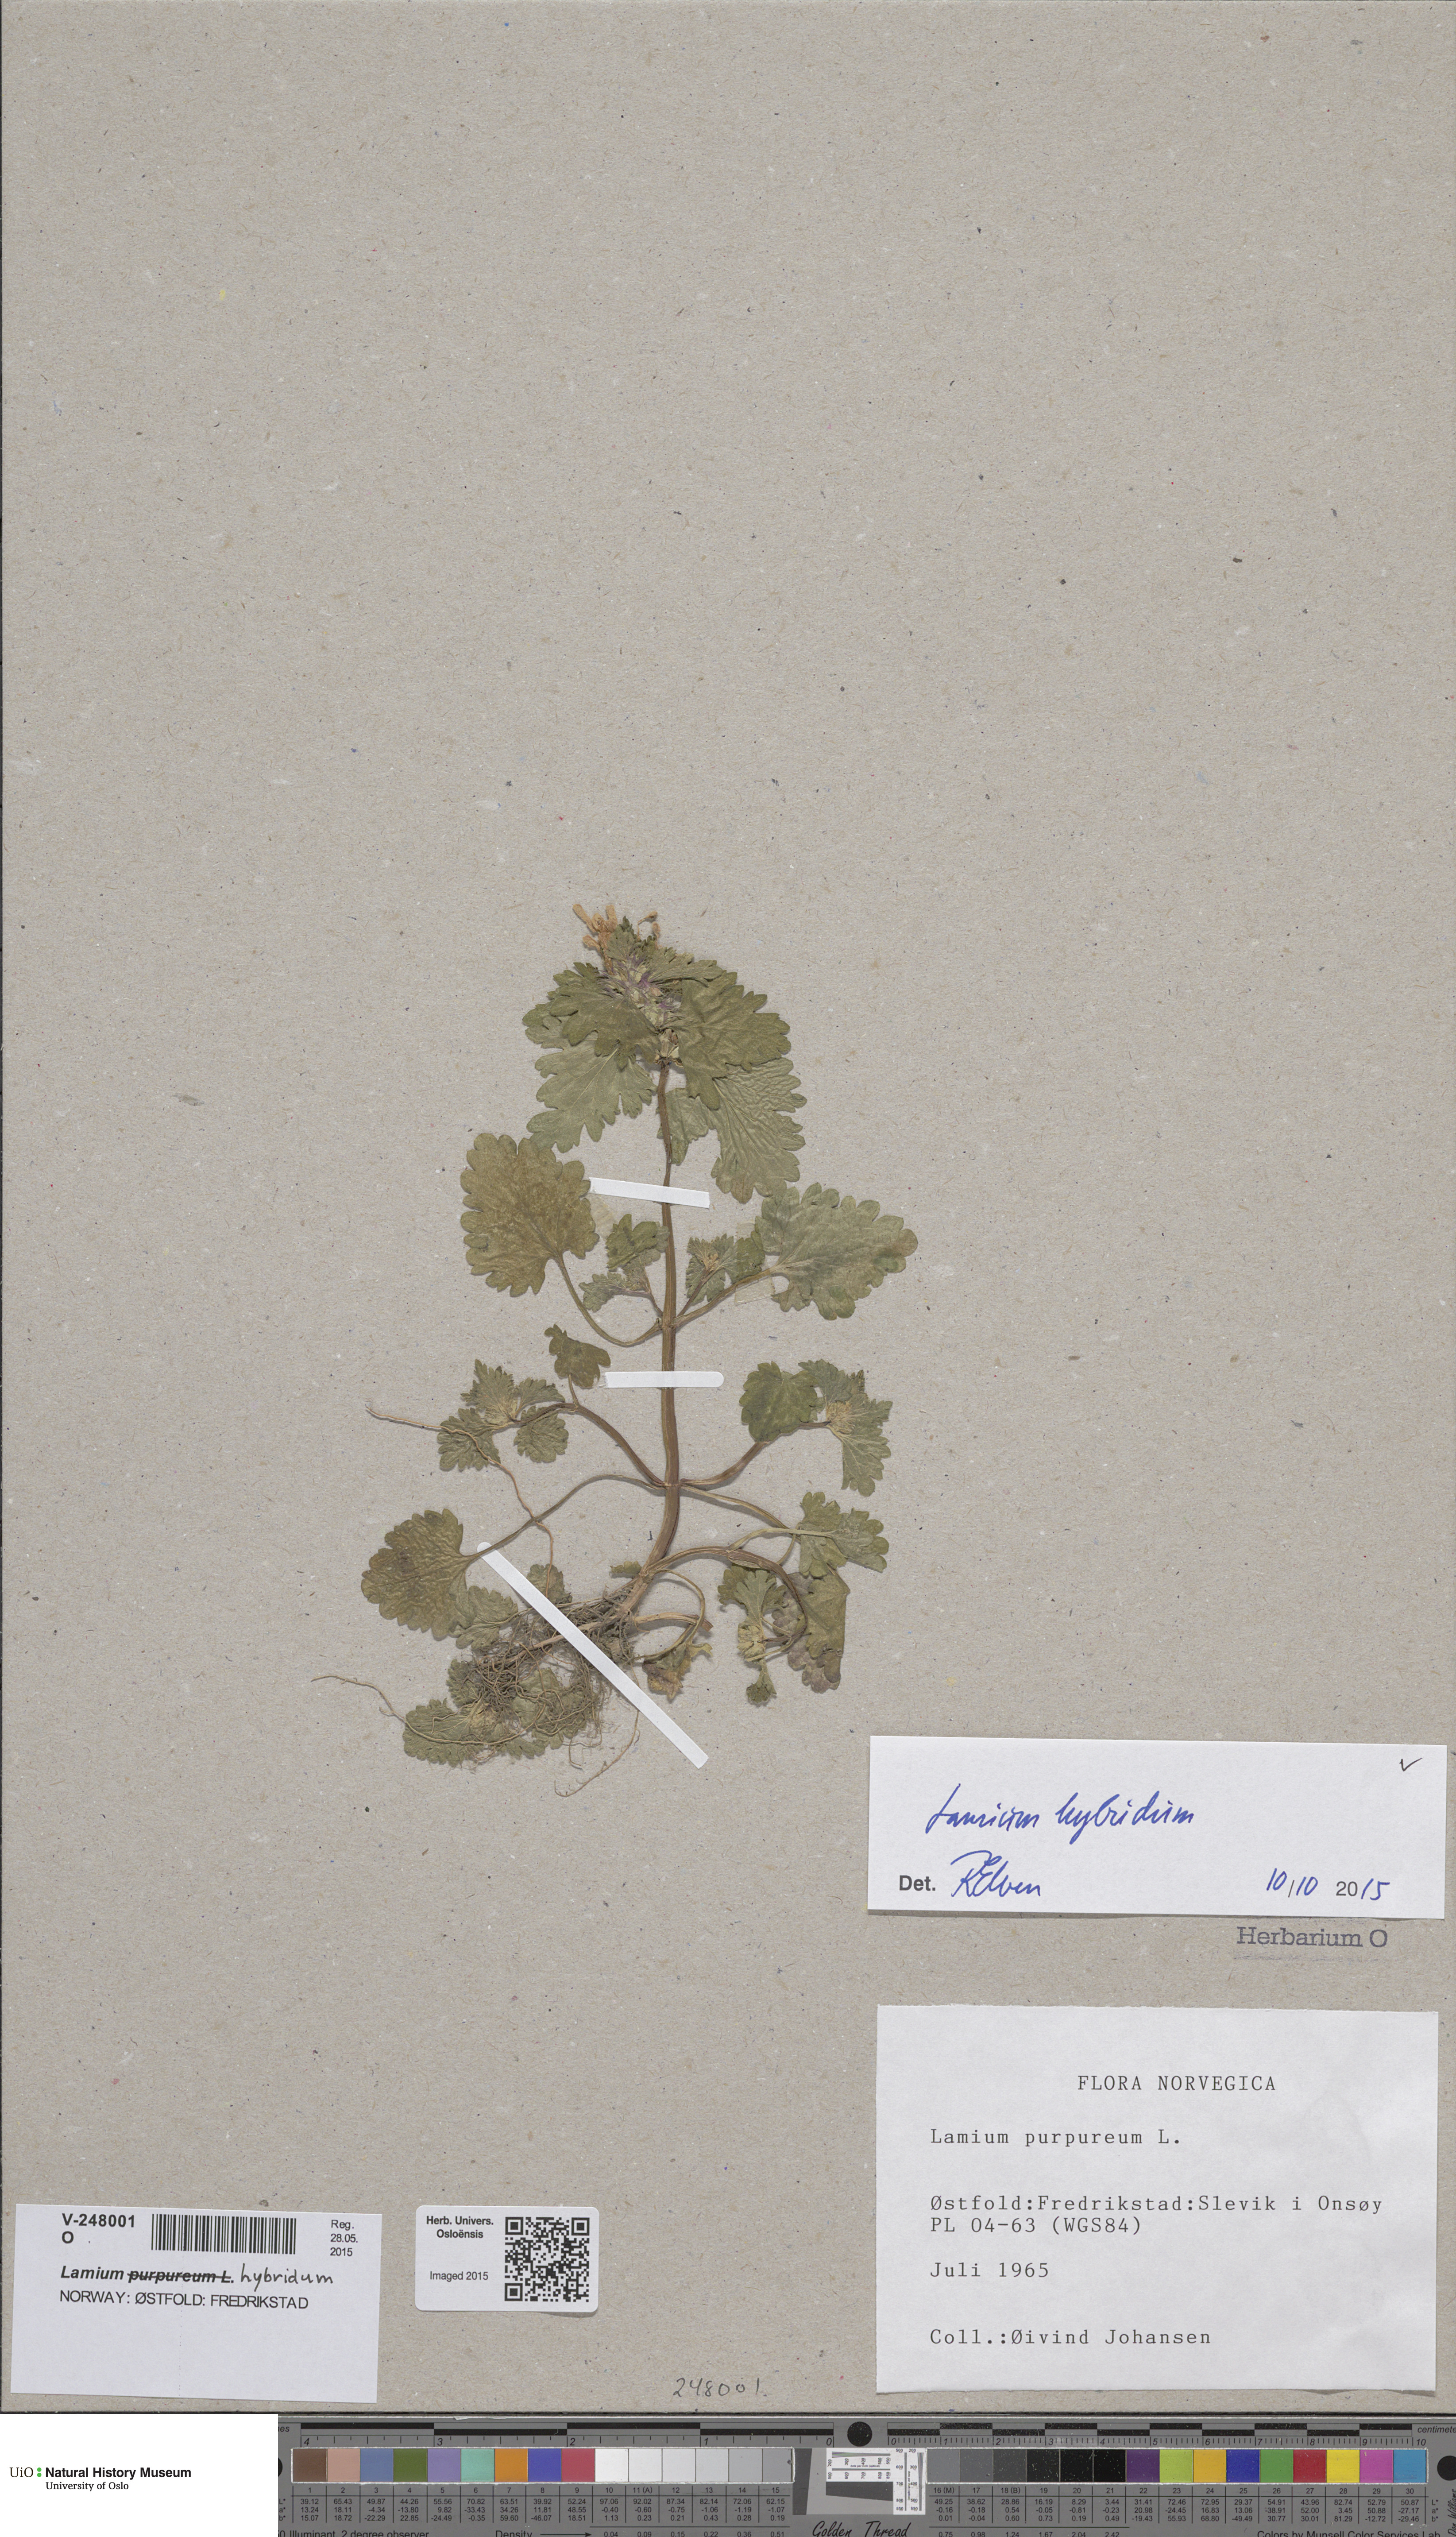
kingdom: Plantae
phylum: Tracheophyta
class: Magnoliopsida
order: Lamiales
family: Lamiaceae
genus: Lamium
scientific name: Lamium hybridum
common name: Cut-leaved dead-nettle
